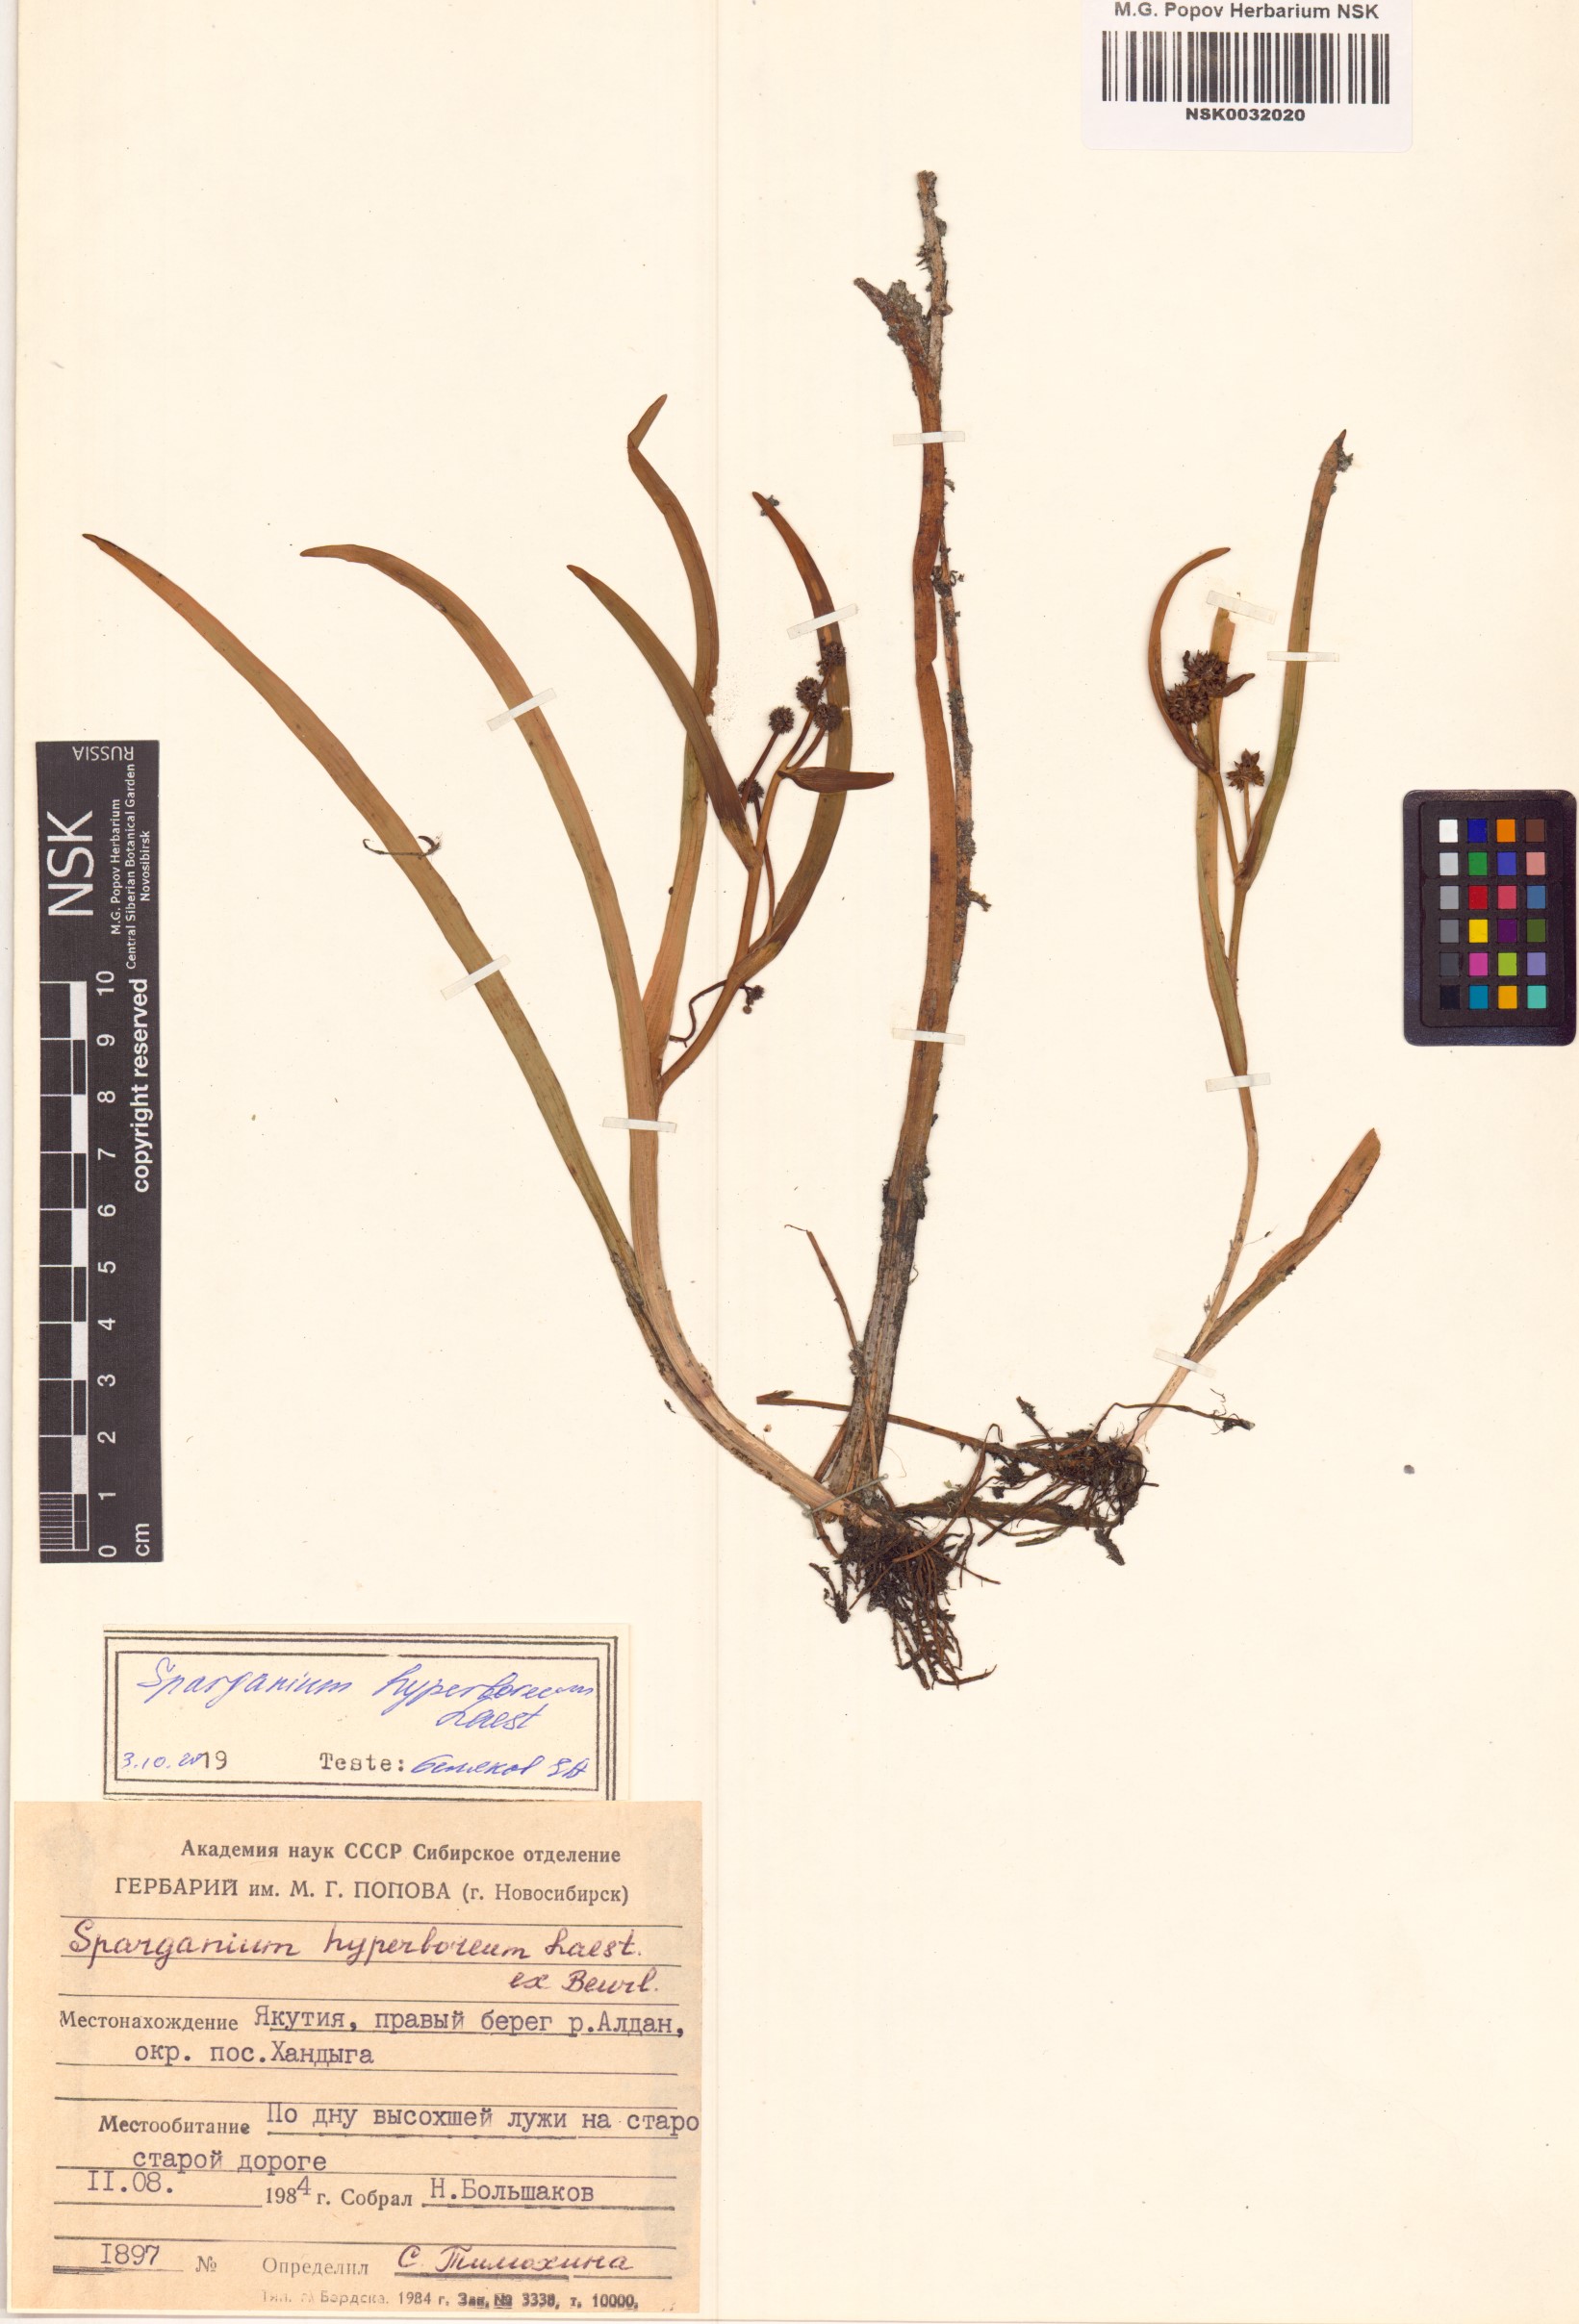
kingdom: Plantae
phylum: Tracheophyta
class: Liliopsida
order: Poales
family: Typhaceae
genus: Sparganium
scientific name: Sparganium hyperboreum
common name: Arctic burreed
